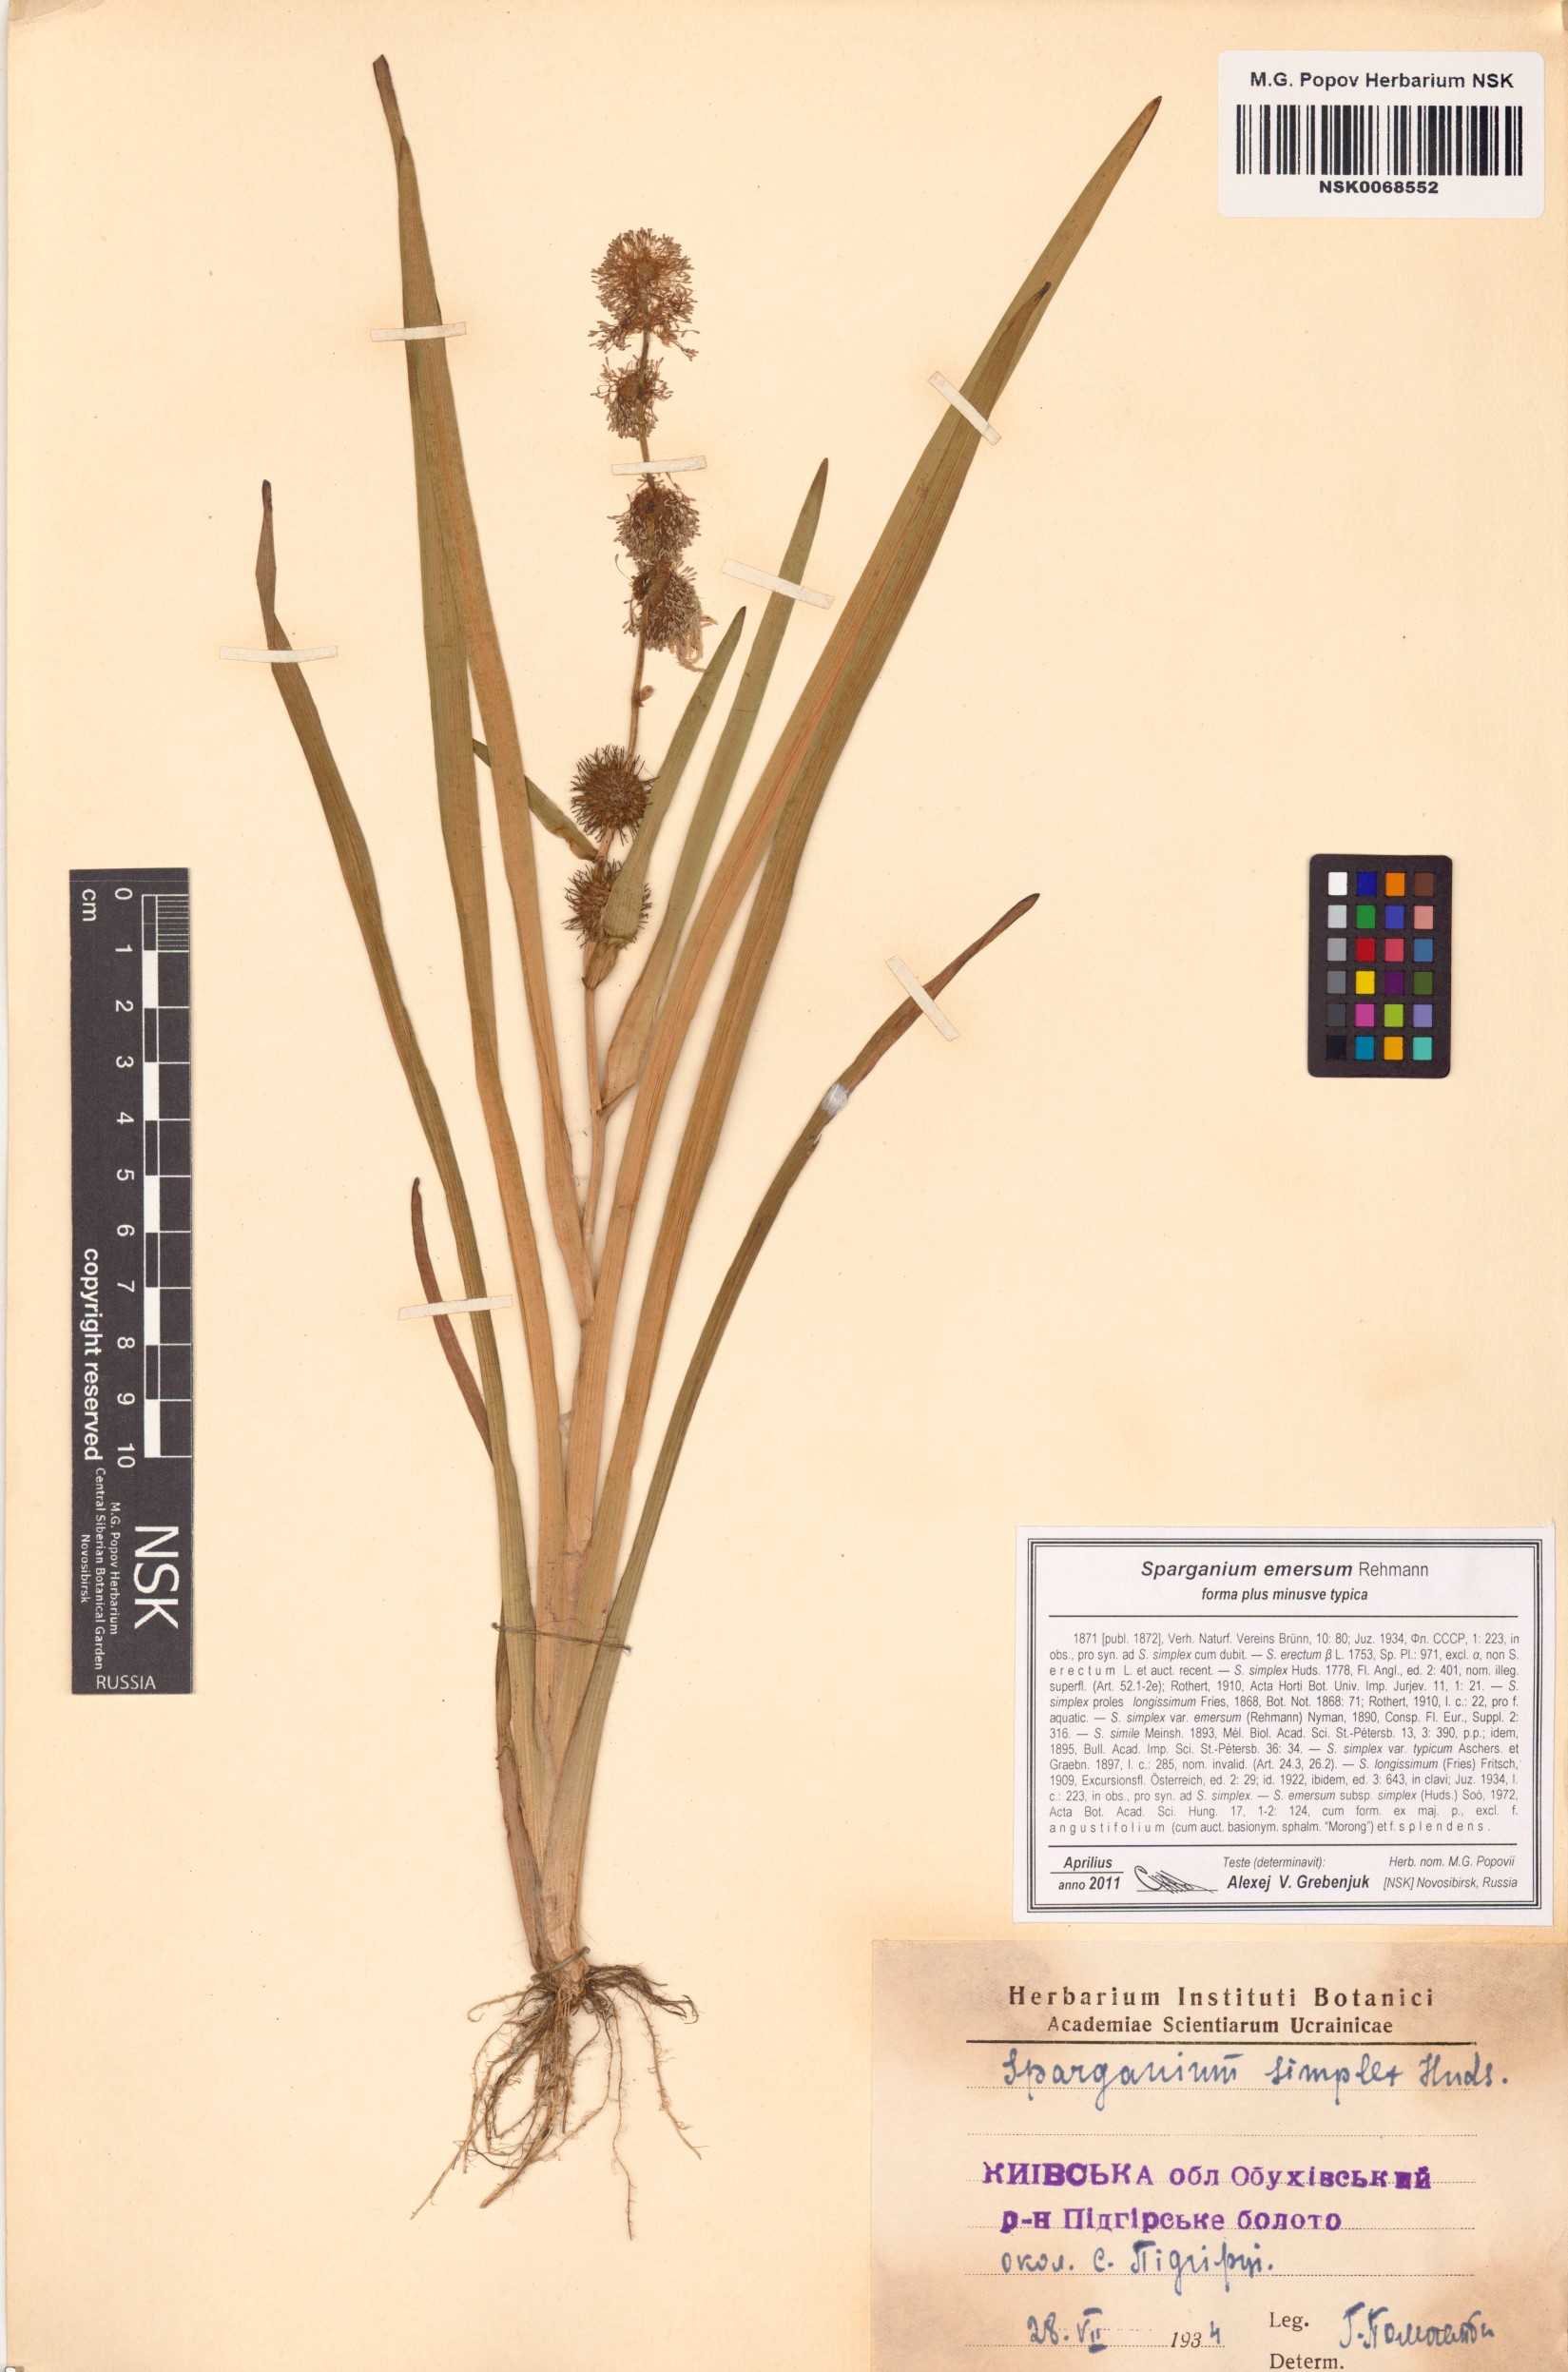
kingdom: Plantae
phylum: Tracheophyta
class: Liliopsida
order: Poales
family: Typhaceae
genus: Sparganium
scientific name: Sparganium emersum
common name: Unbranched bur-reed
